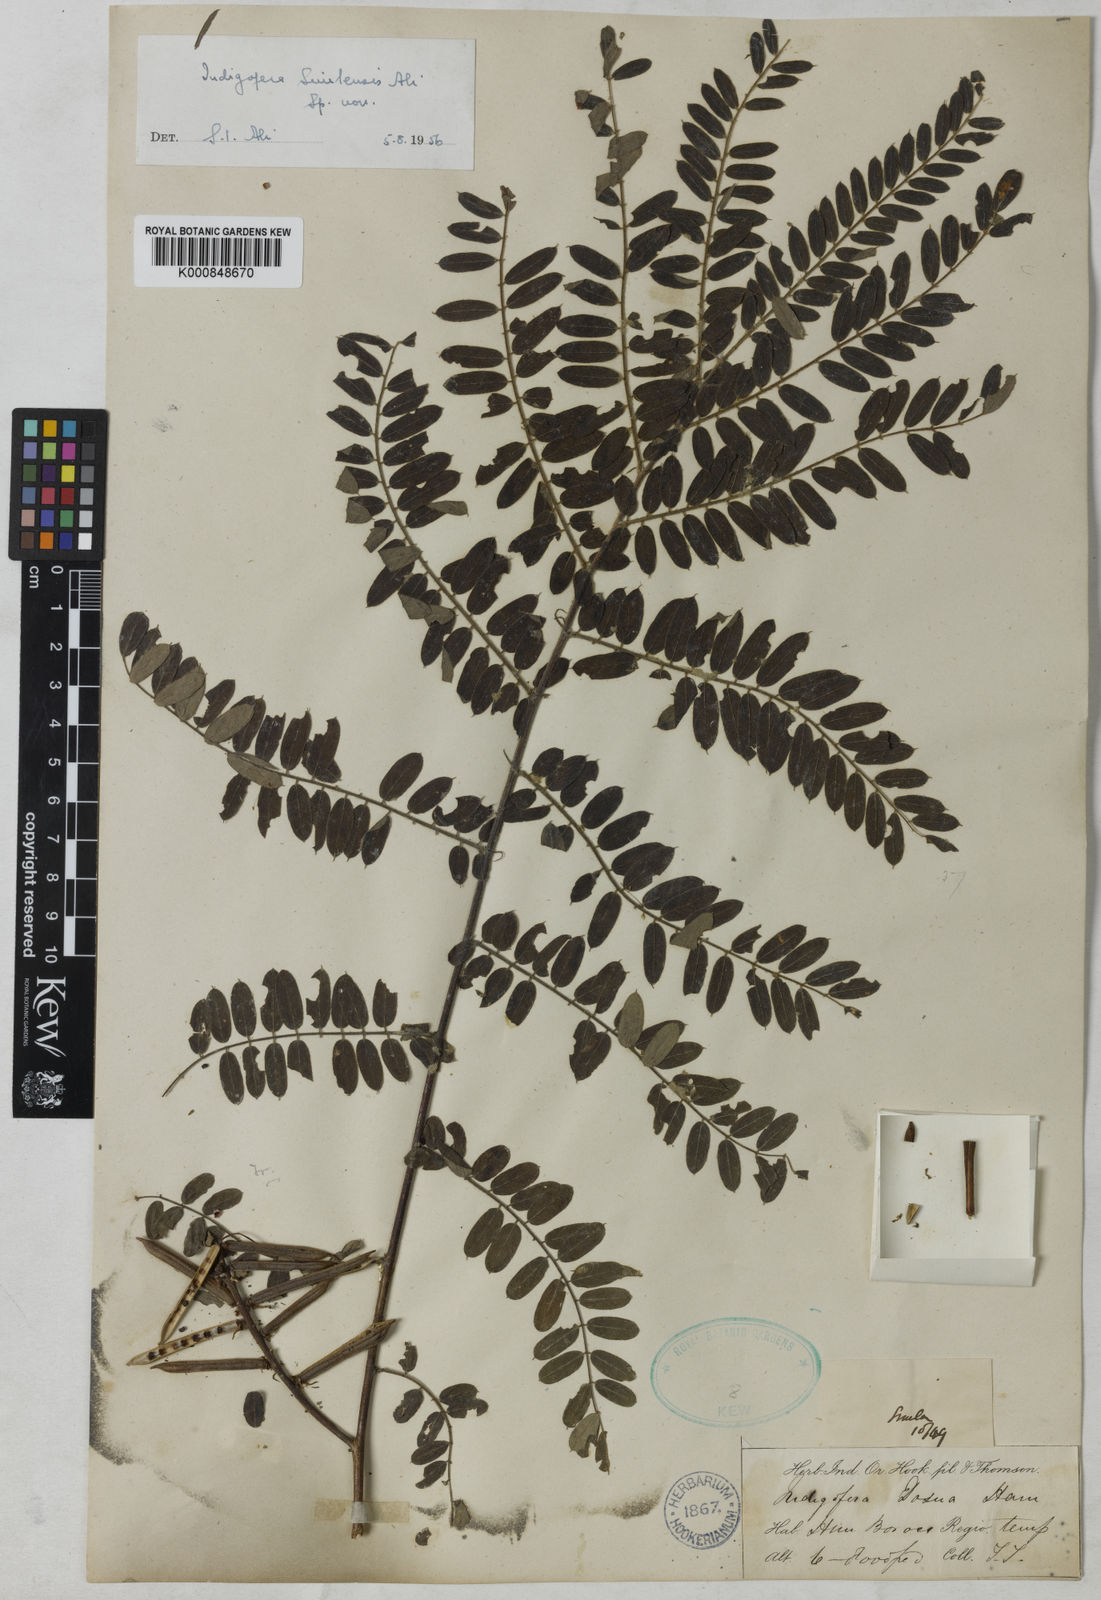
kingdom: Plantae
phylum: Tracheophyta
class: Magnoliopsida
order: Fabales
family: Fabaceae
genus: Indigofera
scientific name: Indigofera dosua
